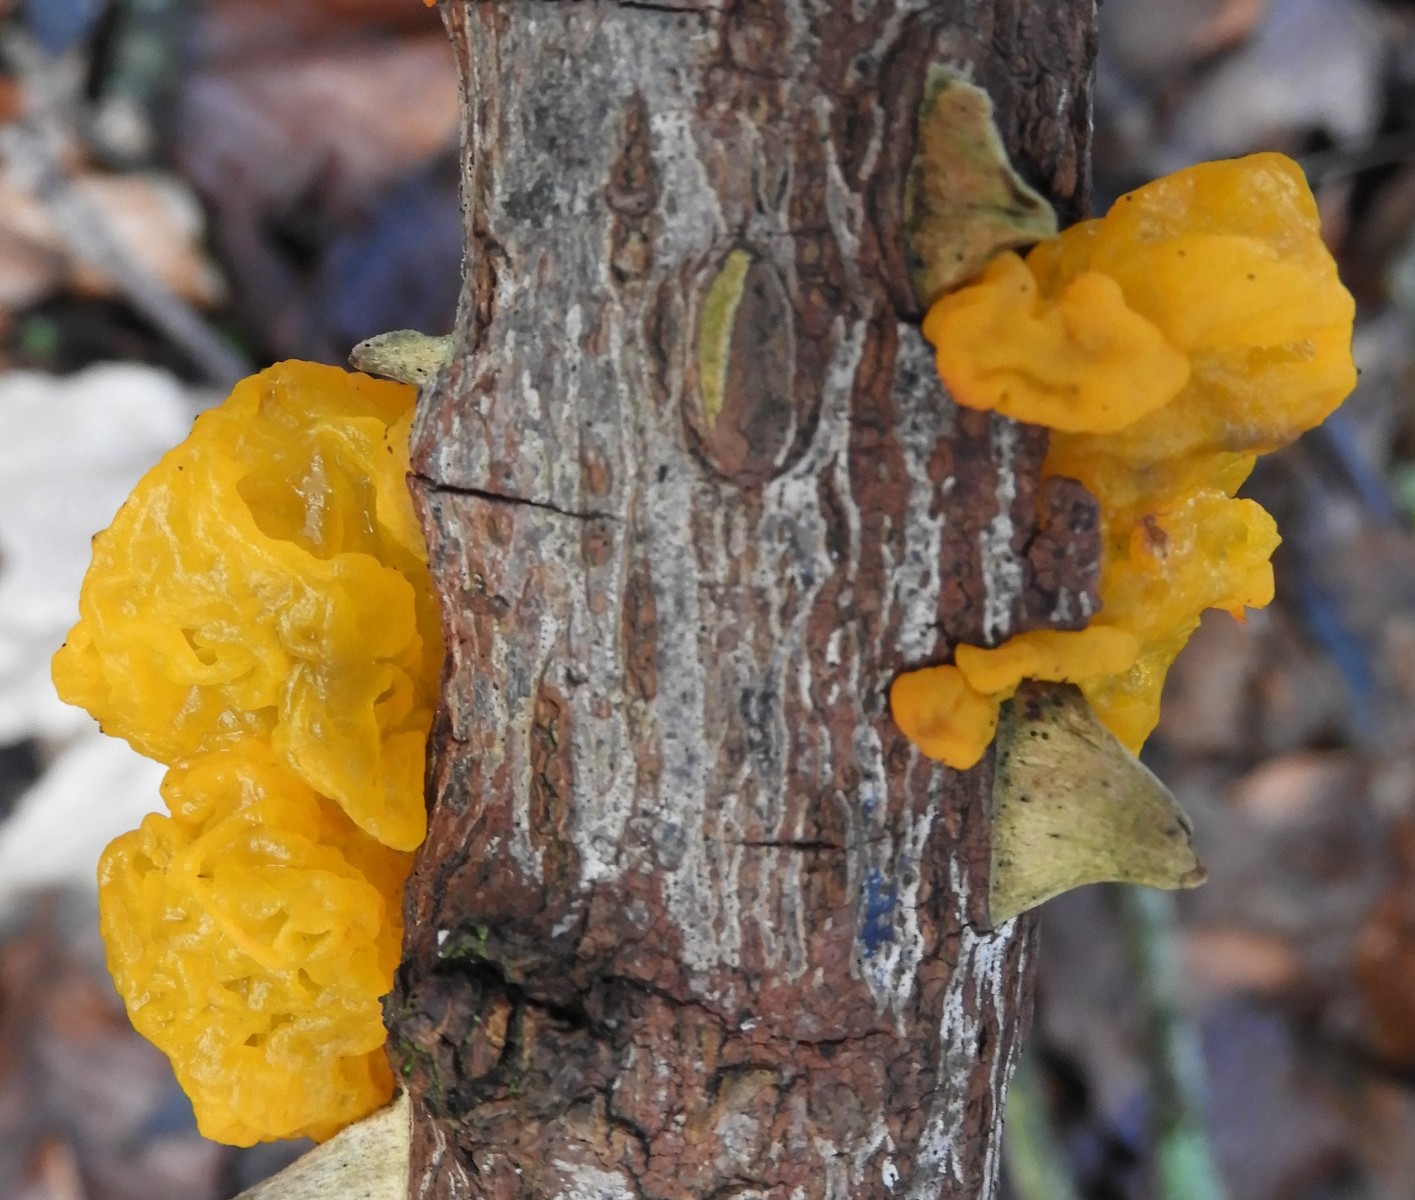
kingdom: Fungi
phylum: Basidiomycota
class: Tremellomycetes
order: Tremellales
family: Tremellaceae
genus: Tremella
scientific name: Tremella mesenterica
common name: gul bævresvamp
